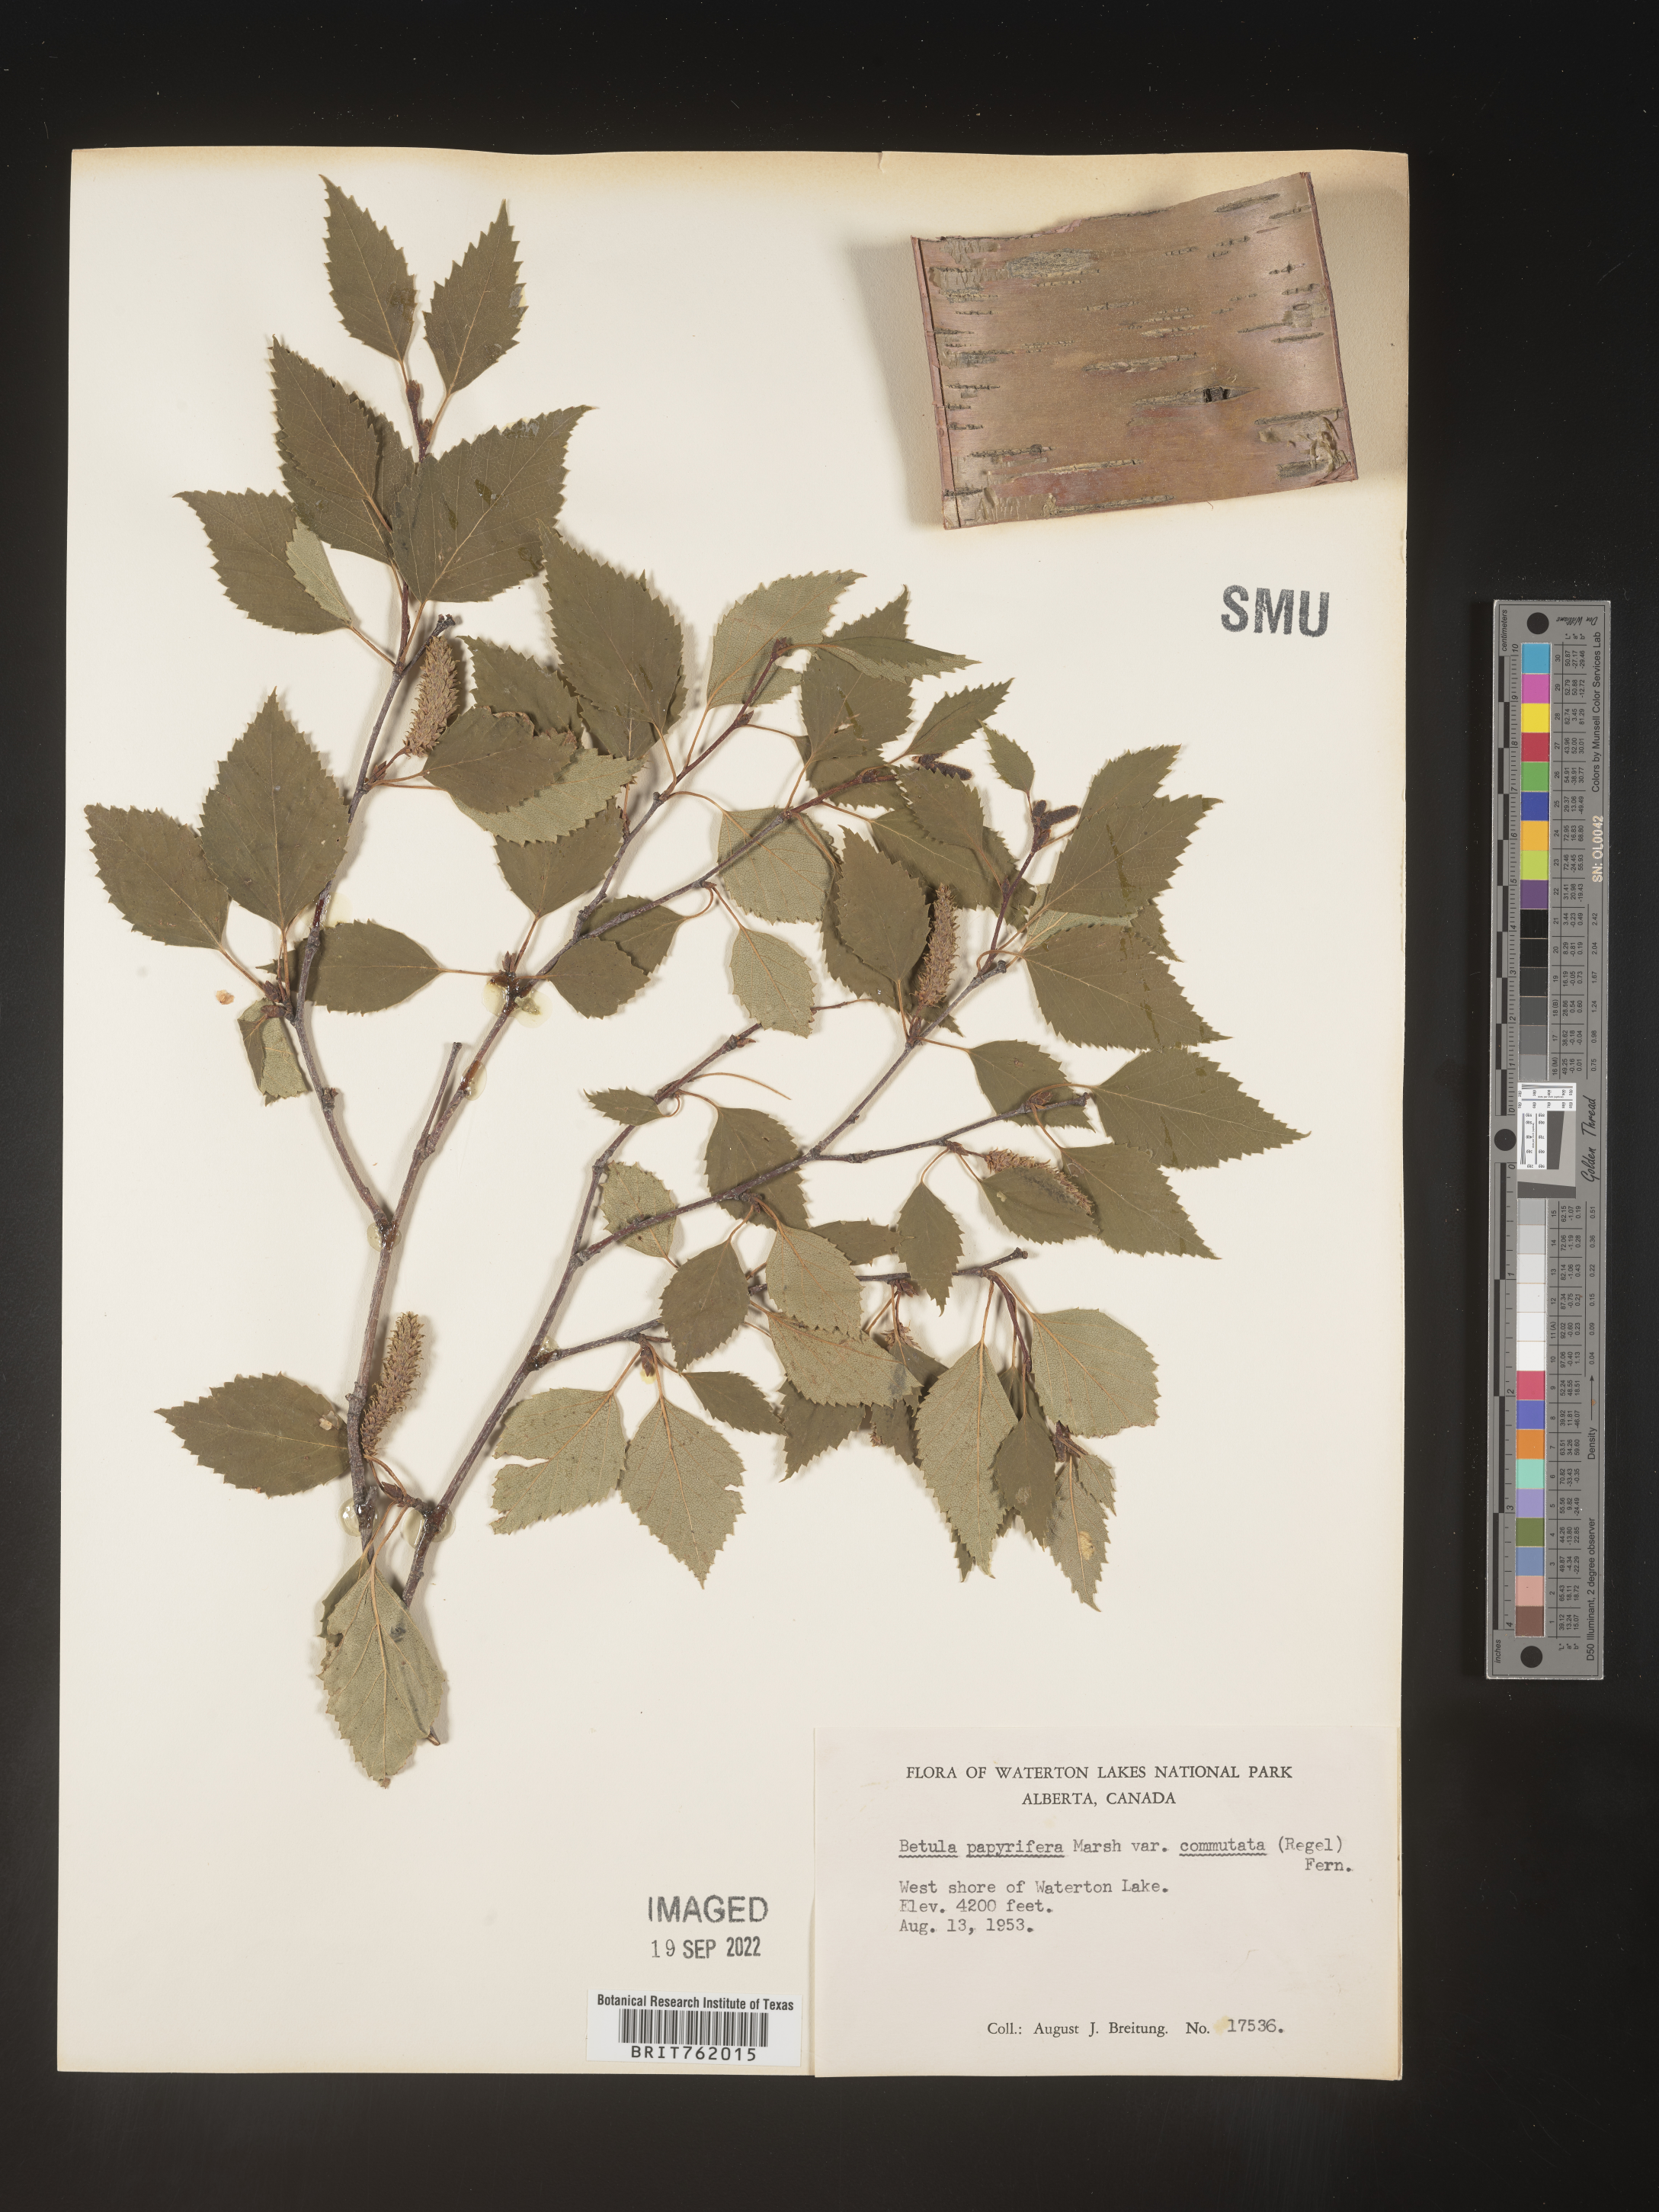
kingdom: Plantae
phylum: Tracheophyta
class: Magnoliopsida
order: Fagales
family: Betulaceae
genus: Betula
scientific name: Betula papyrifera
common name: Paper birch
